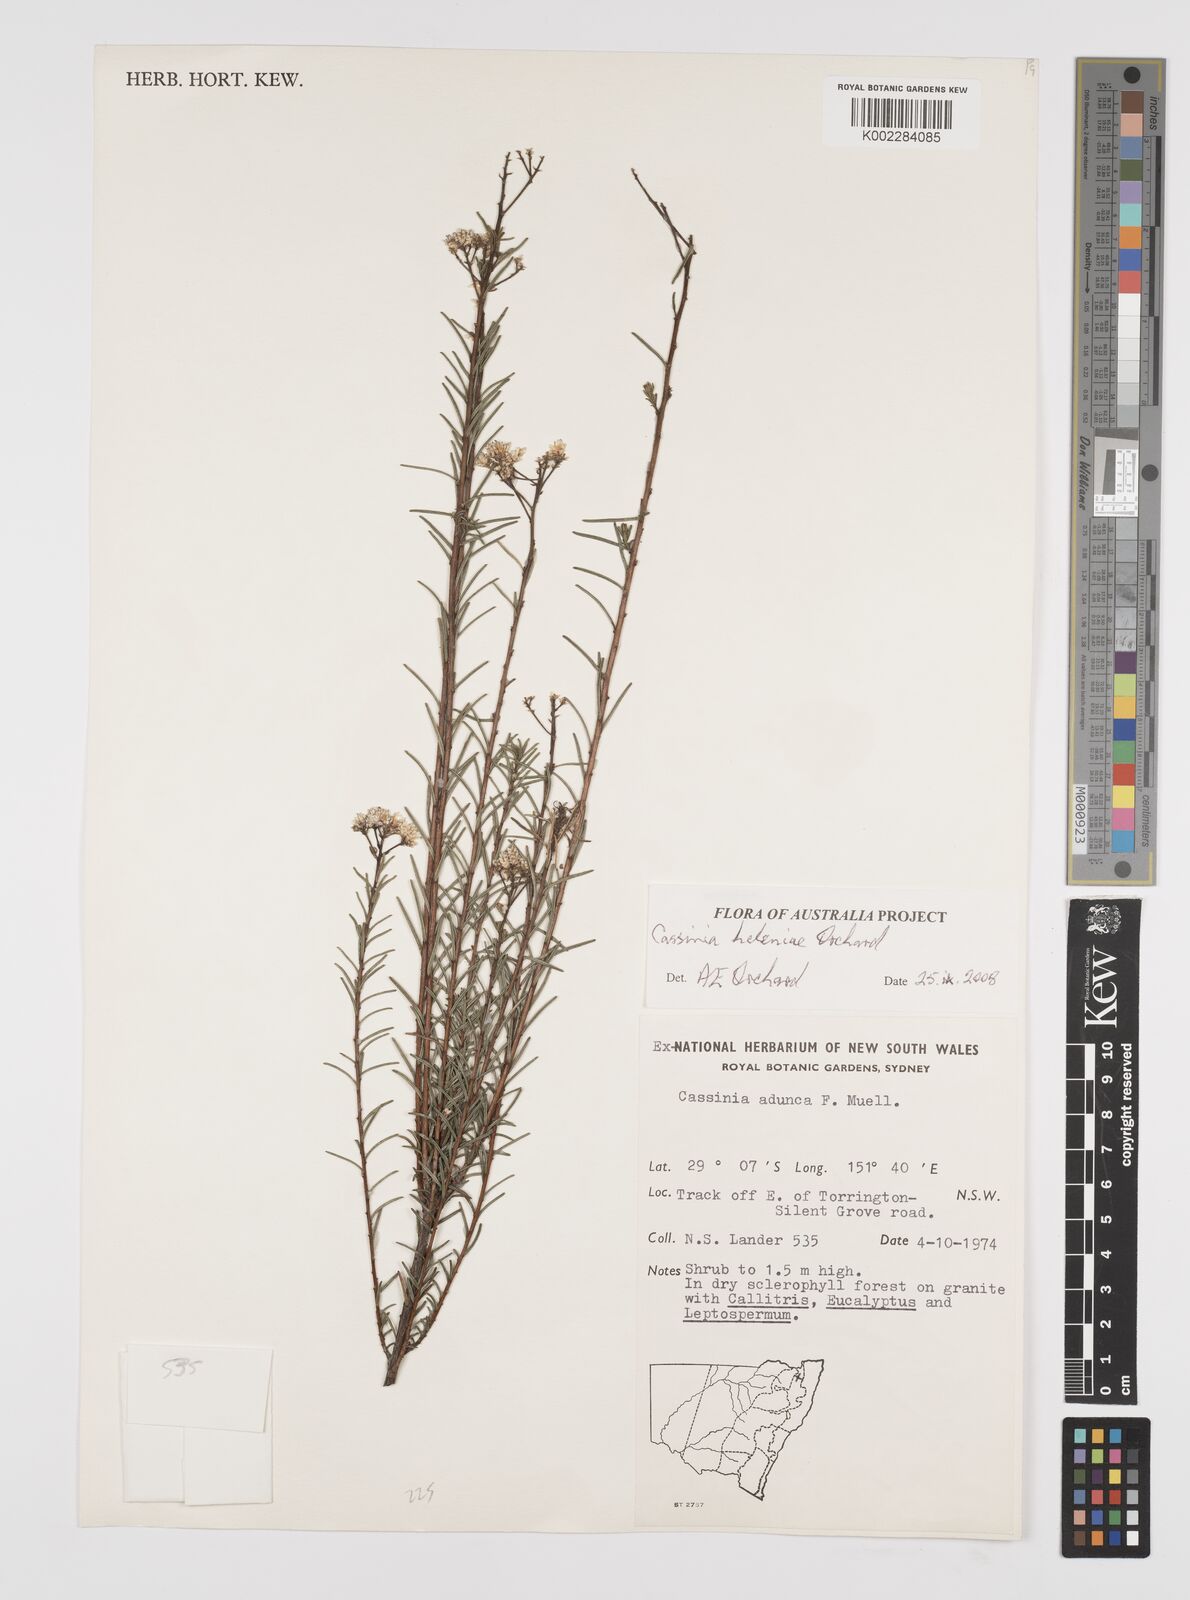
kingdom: Plantae
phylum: Tracheophyta
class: Magnoliopsida
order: Asterales
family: Asteraceae
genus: Cassinia
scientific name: Cassinia helenae
